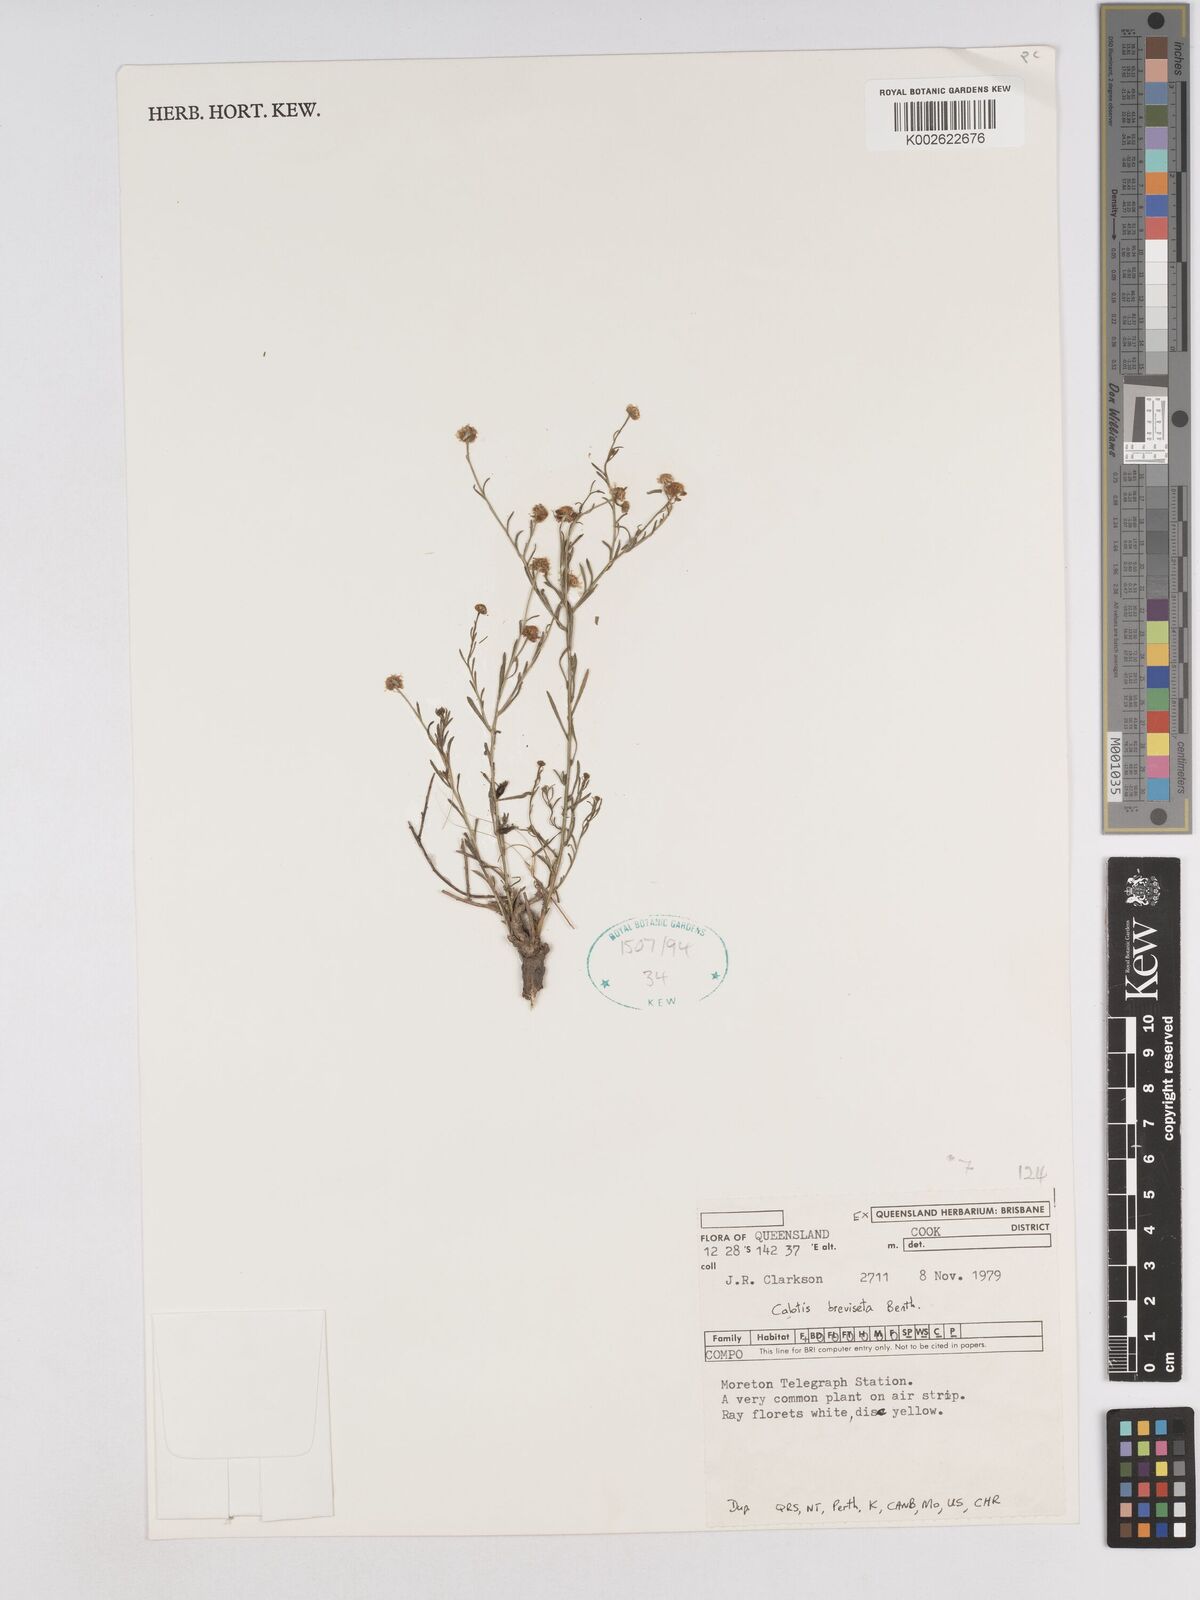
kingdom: Plantae
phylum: Tracheophyta
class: Magnoliopsida
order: Asterales
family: Asteraceae
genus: Calotis
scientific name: Calotis breviseta
